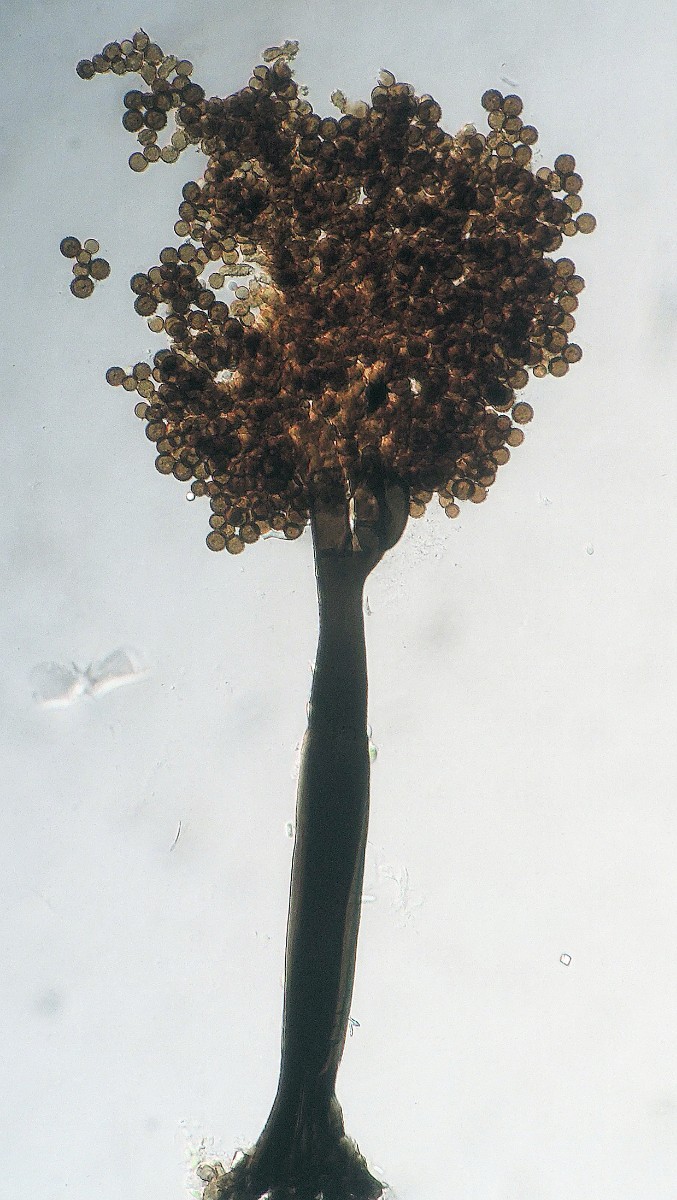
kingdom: Fungi
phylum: Ascomycota
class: Dothideomycetes
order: Pleosporales
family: Periconiaceae
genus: Periconia
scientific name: Periconia minutissima
